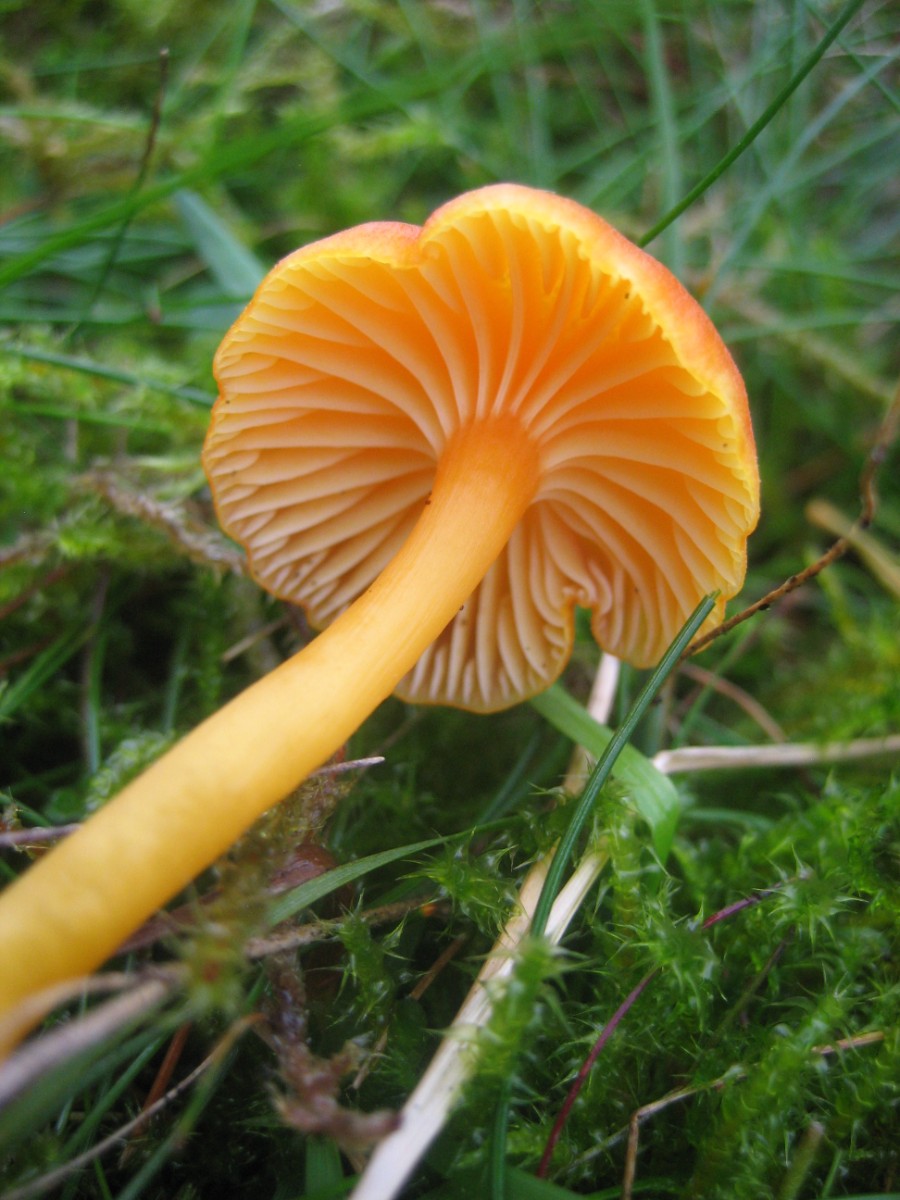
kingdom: Fungi
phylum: Basidiomycota
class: Agaricomycetes
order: Agaricales
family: Hygrophoraceae
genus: Hygrocybe
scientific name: Hygrocybe reidii
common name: honning-vokshat
